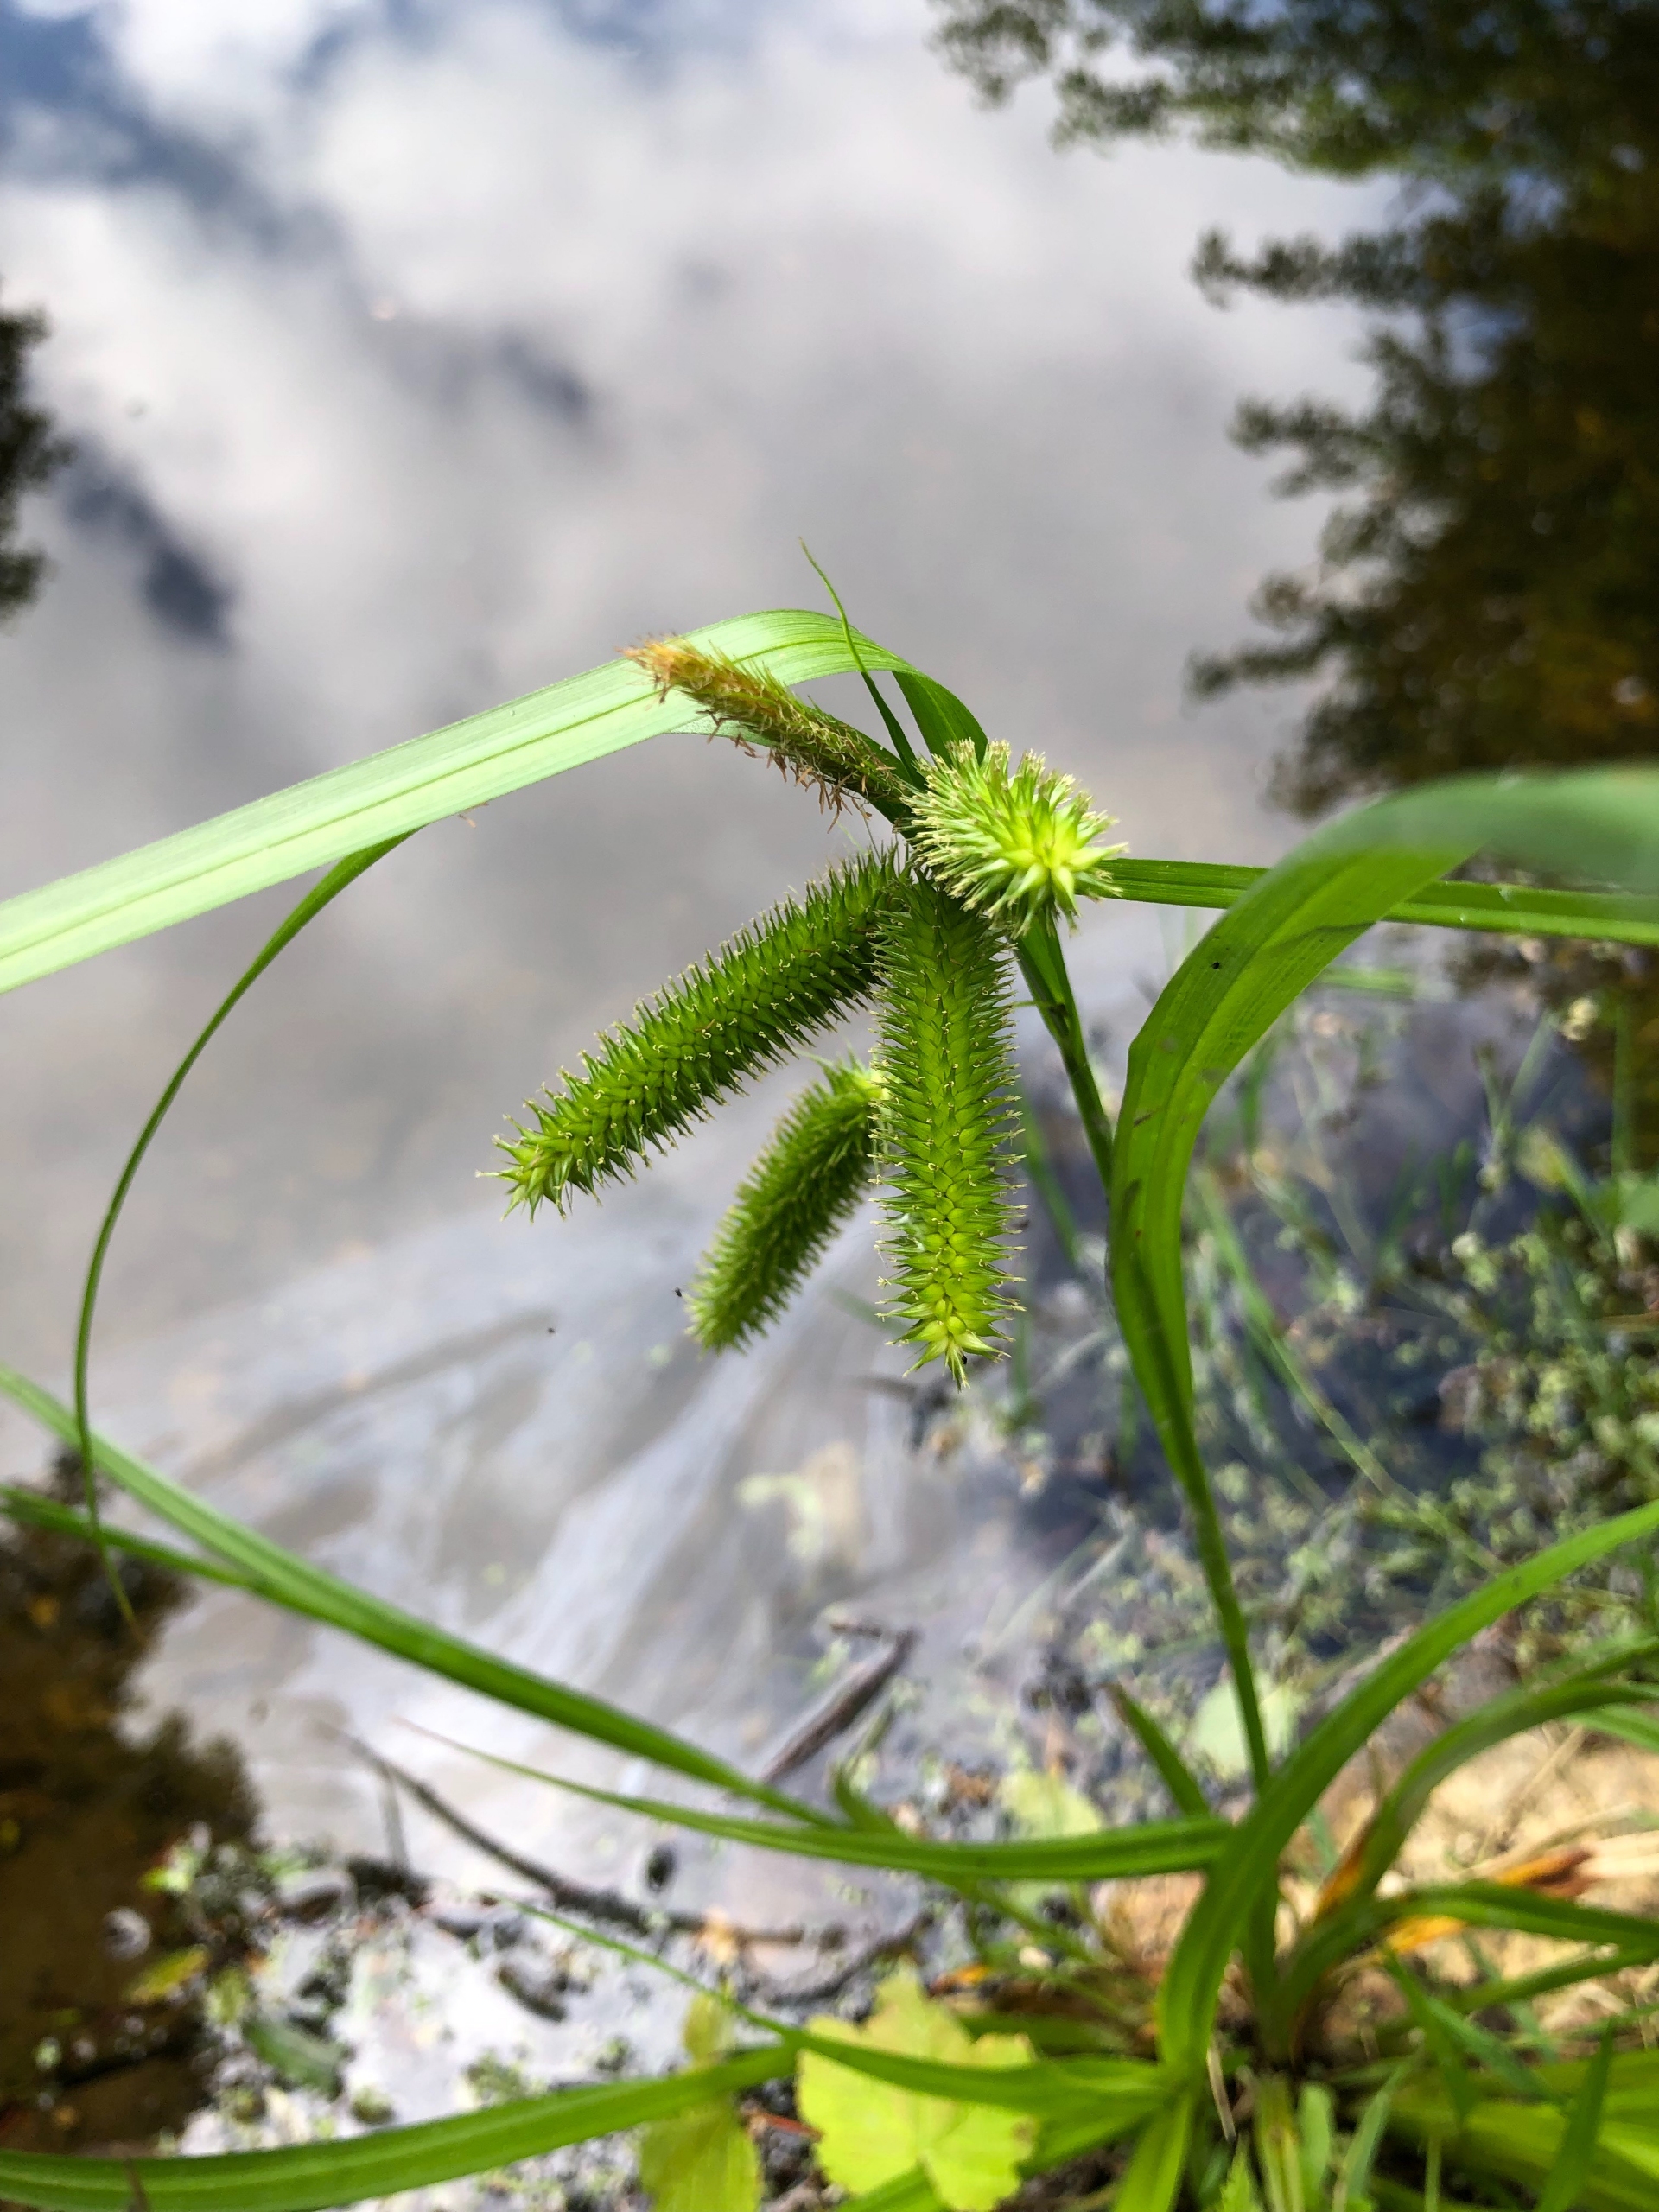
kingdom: Plantae
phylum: Tracheophyta
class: Liliopsida
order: Poales
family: Cyperaceae
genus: Carex
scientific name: Carex pseudocyperus
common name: Knippe-star
